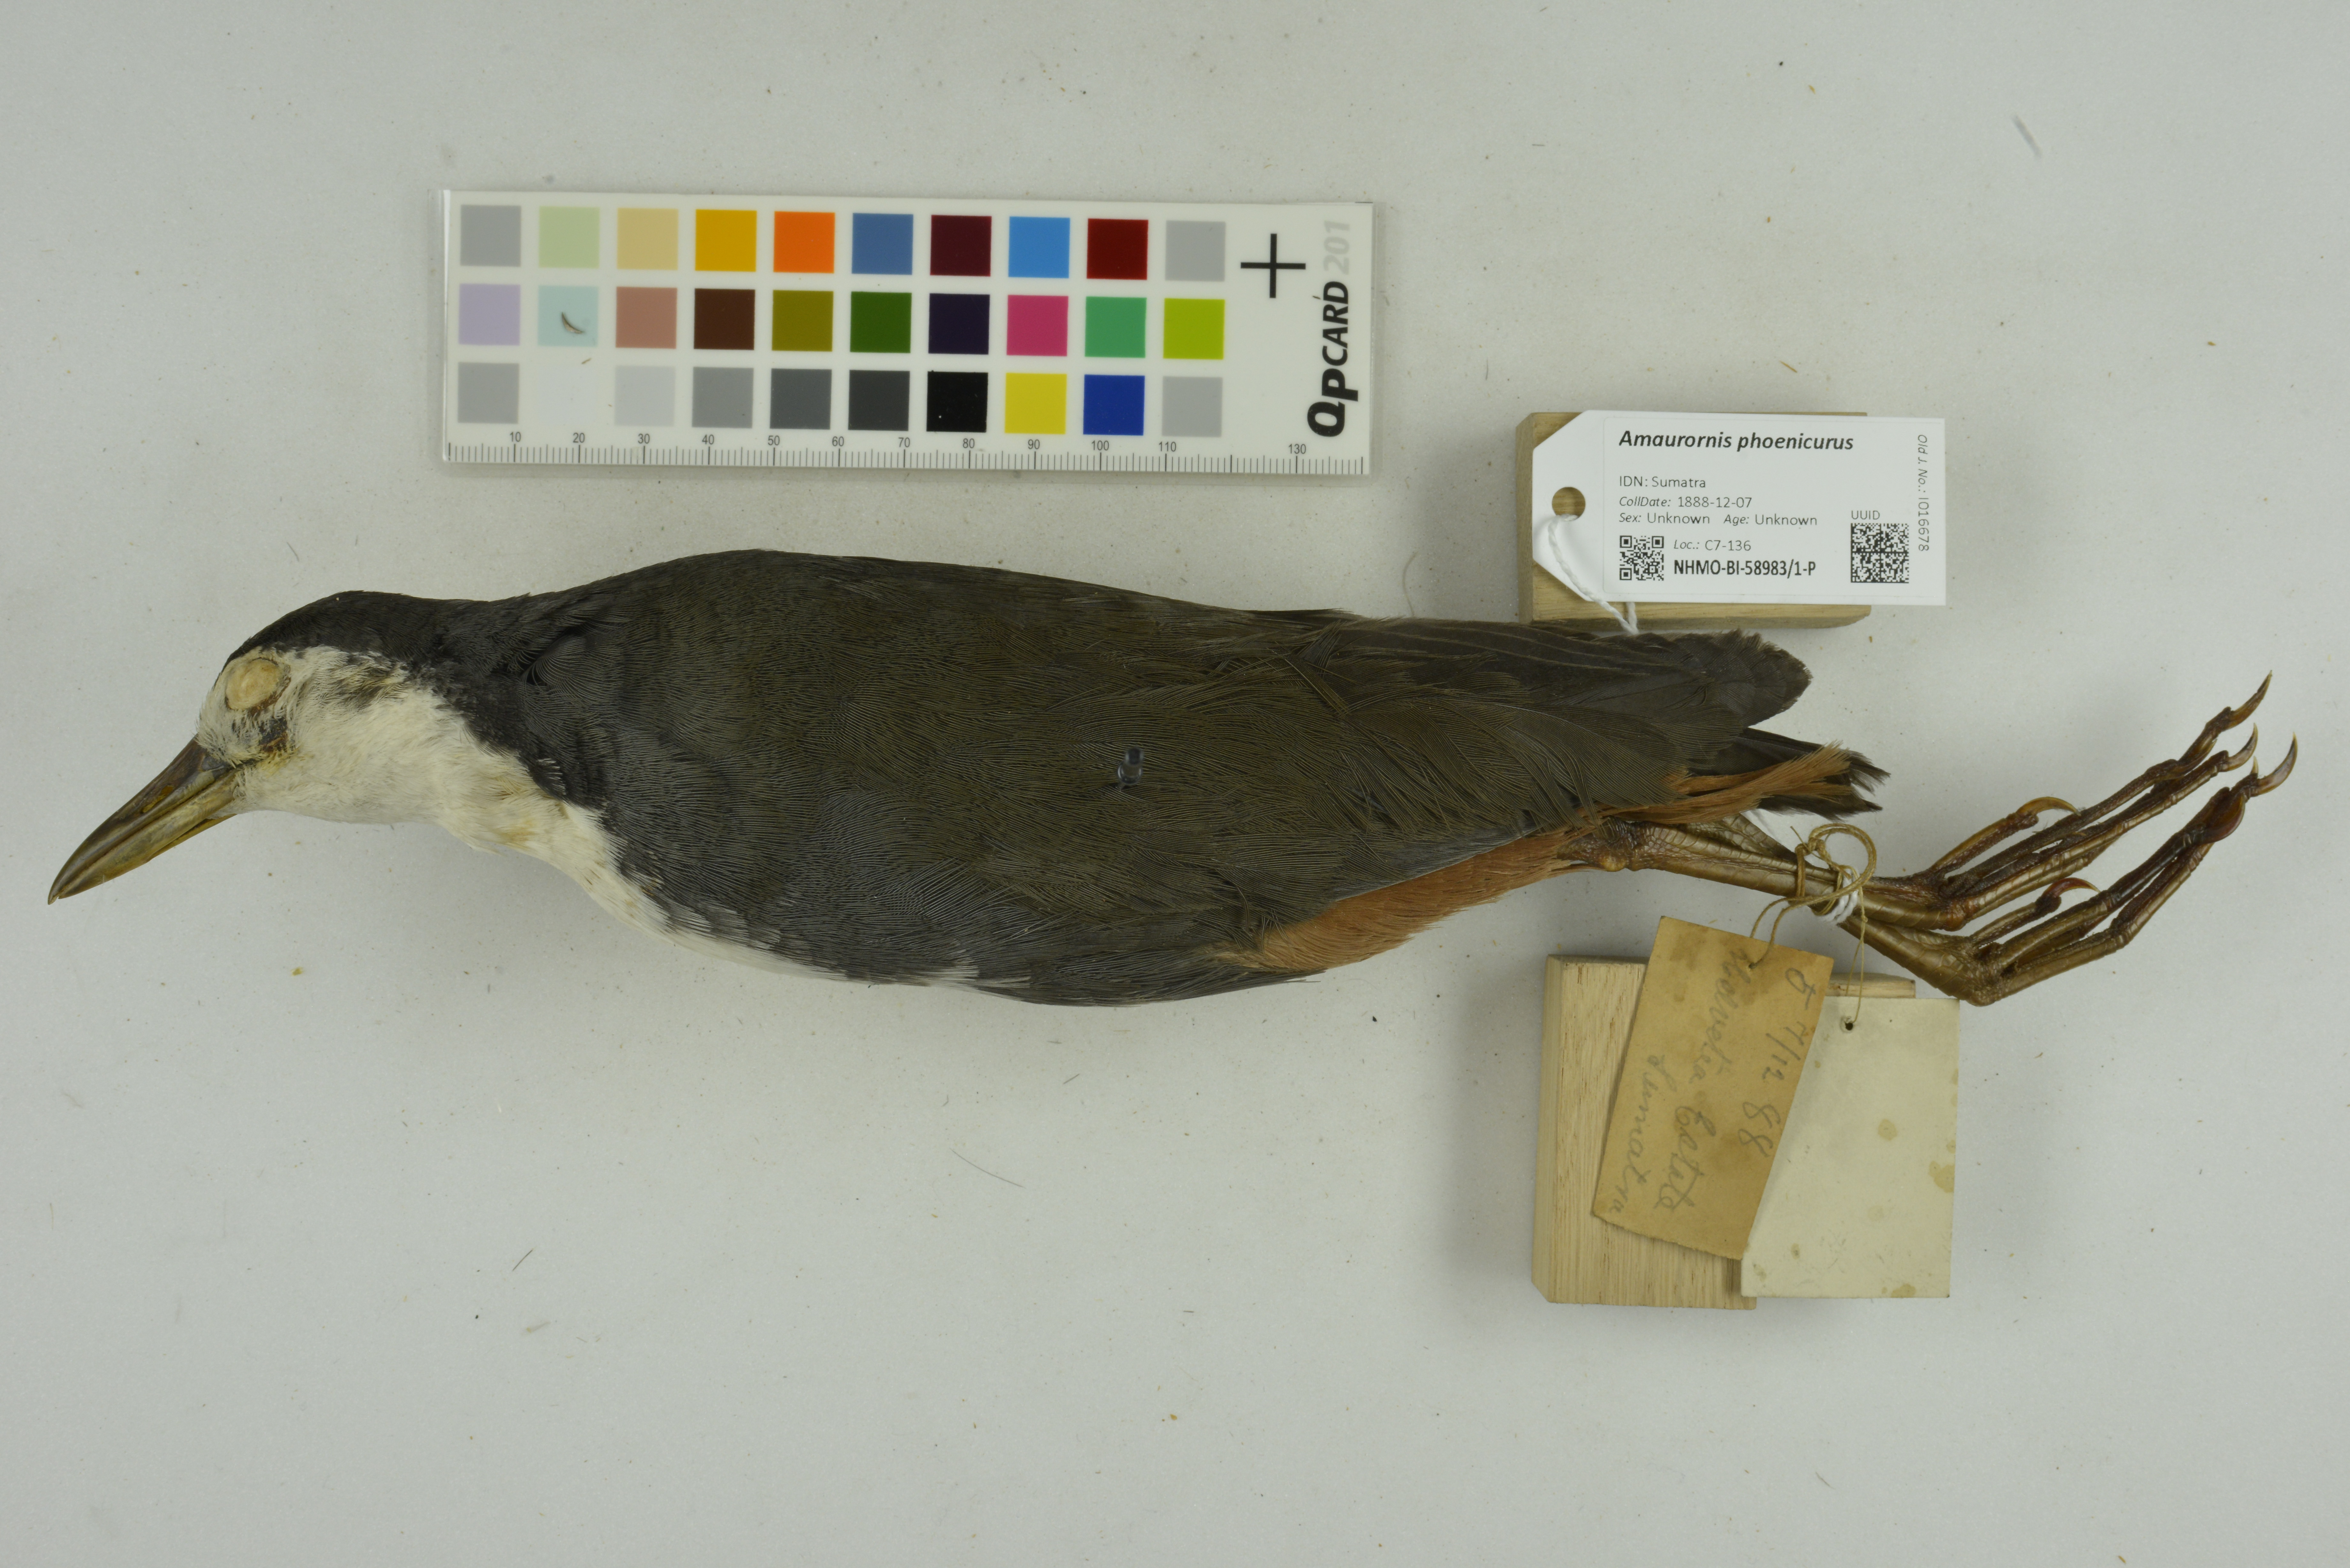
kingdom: Animalia
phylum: Chordata
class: Aves
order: Gruiformes
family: Rallidae
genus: Amaurornis
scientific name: Amaurornis phoenicurus
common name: White-breasted waterhen
